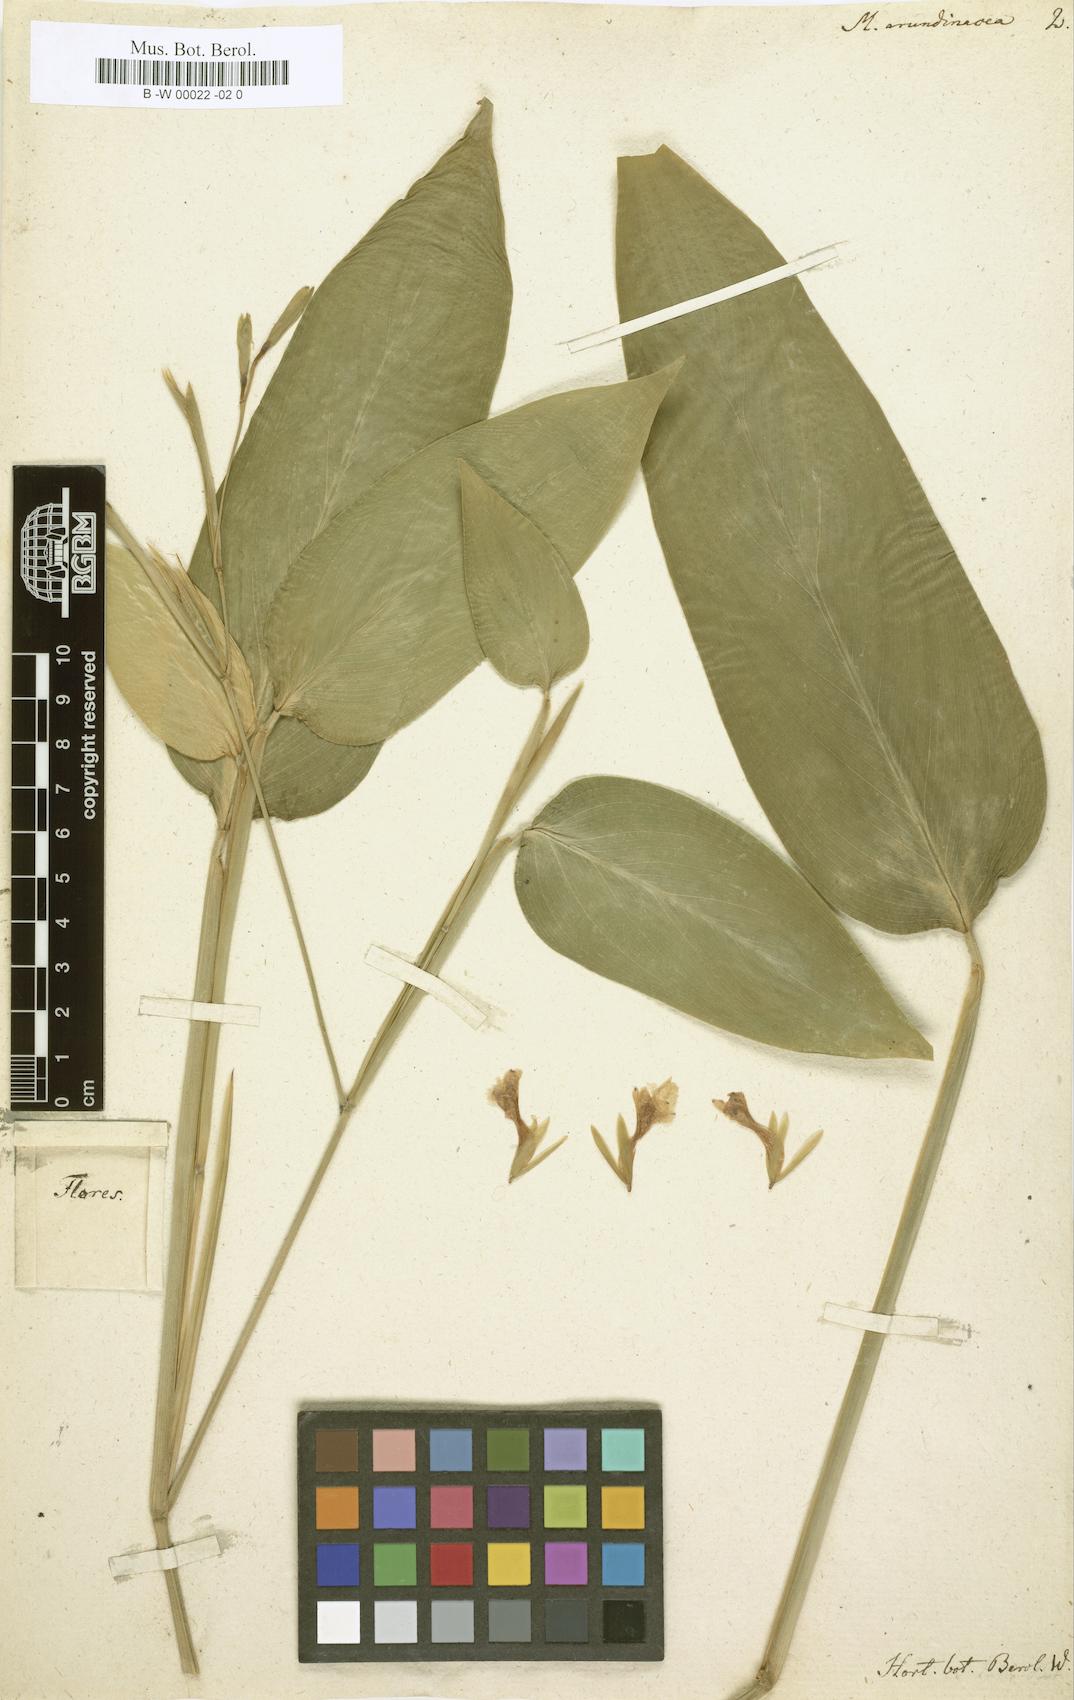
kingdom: Plantae
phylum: Tracheophyta
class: Liliopsida
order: Zingiberales
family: Marantaceae
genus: Maranta
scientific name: Maranta arundinacea
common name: Arrowroot
